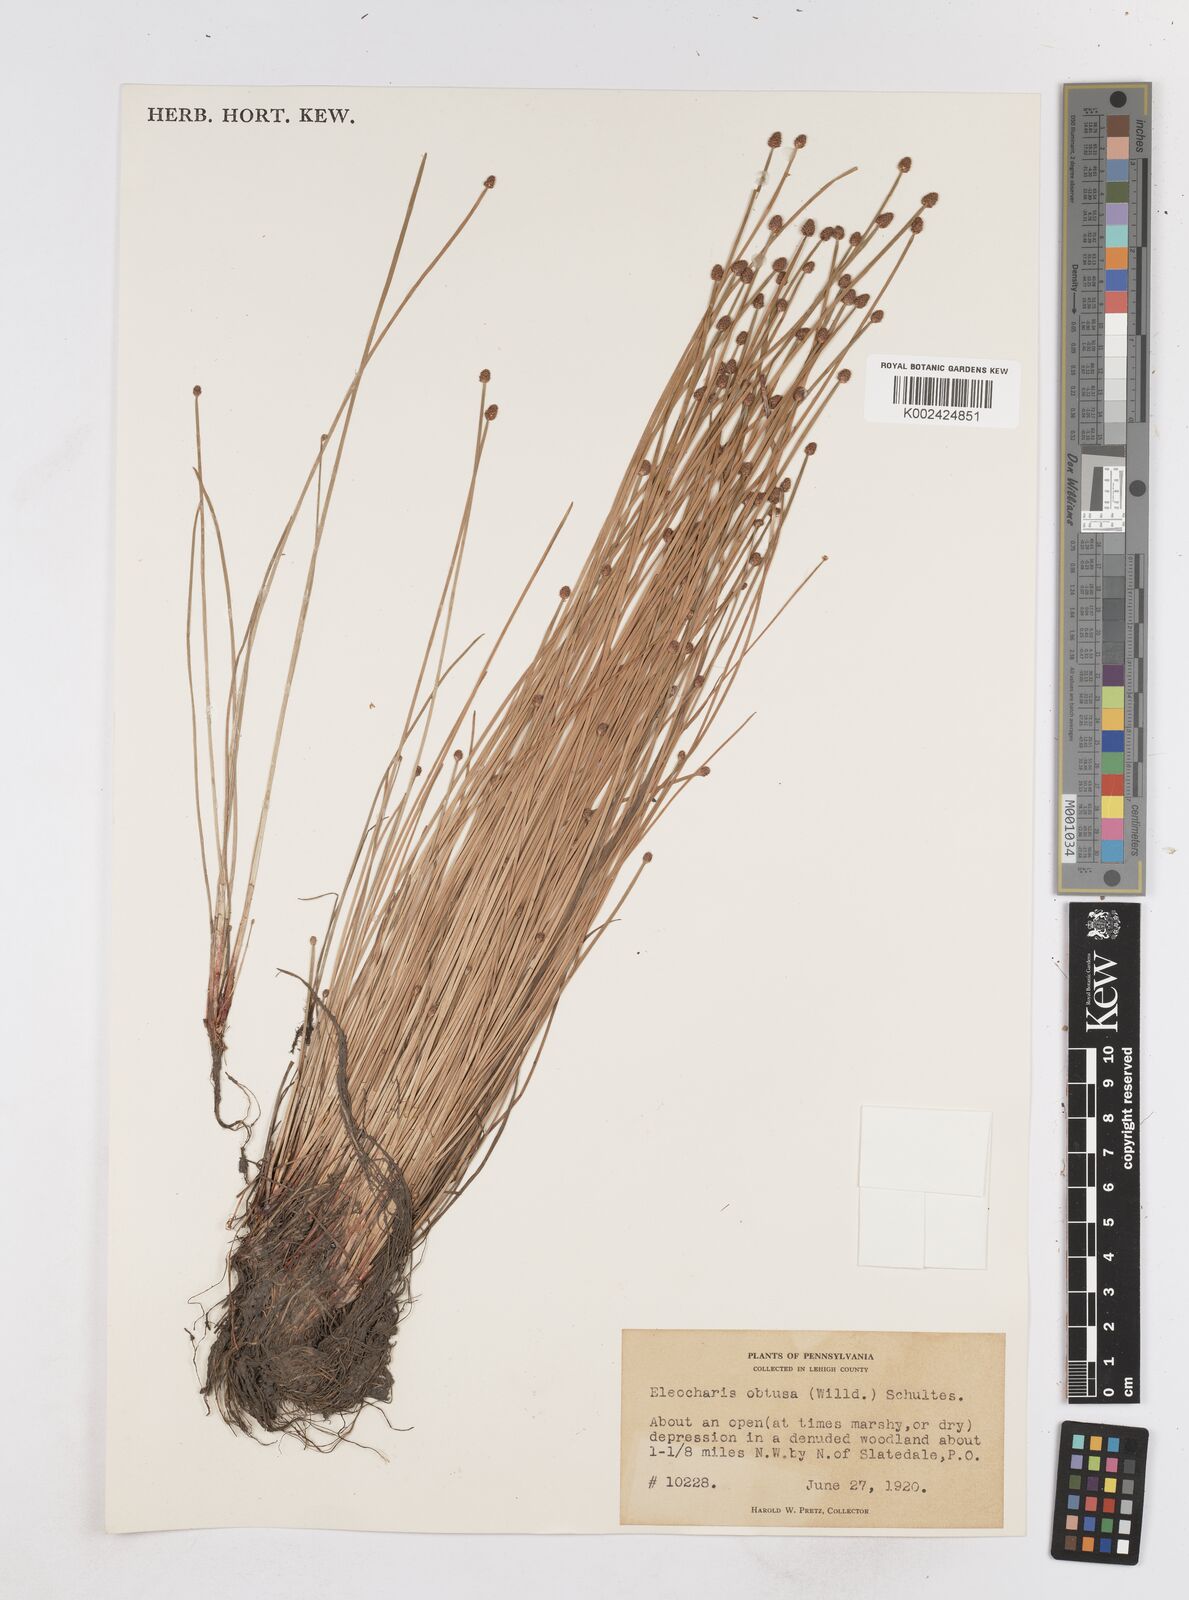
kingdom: Plantae
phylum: Tracheophyta
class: Liliopsida
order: Poales
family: Cyperaceae
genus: Eleocharis
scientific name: Eleocharis obtusa
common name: Blunt spikerush
